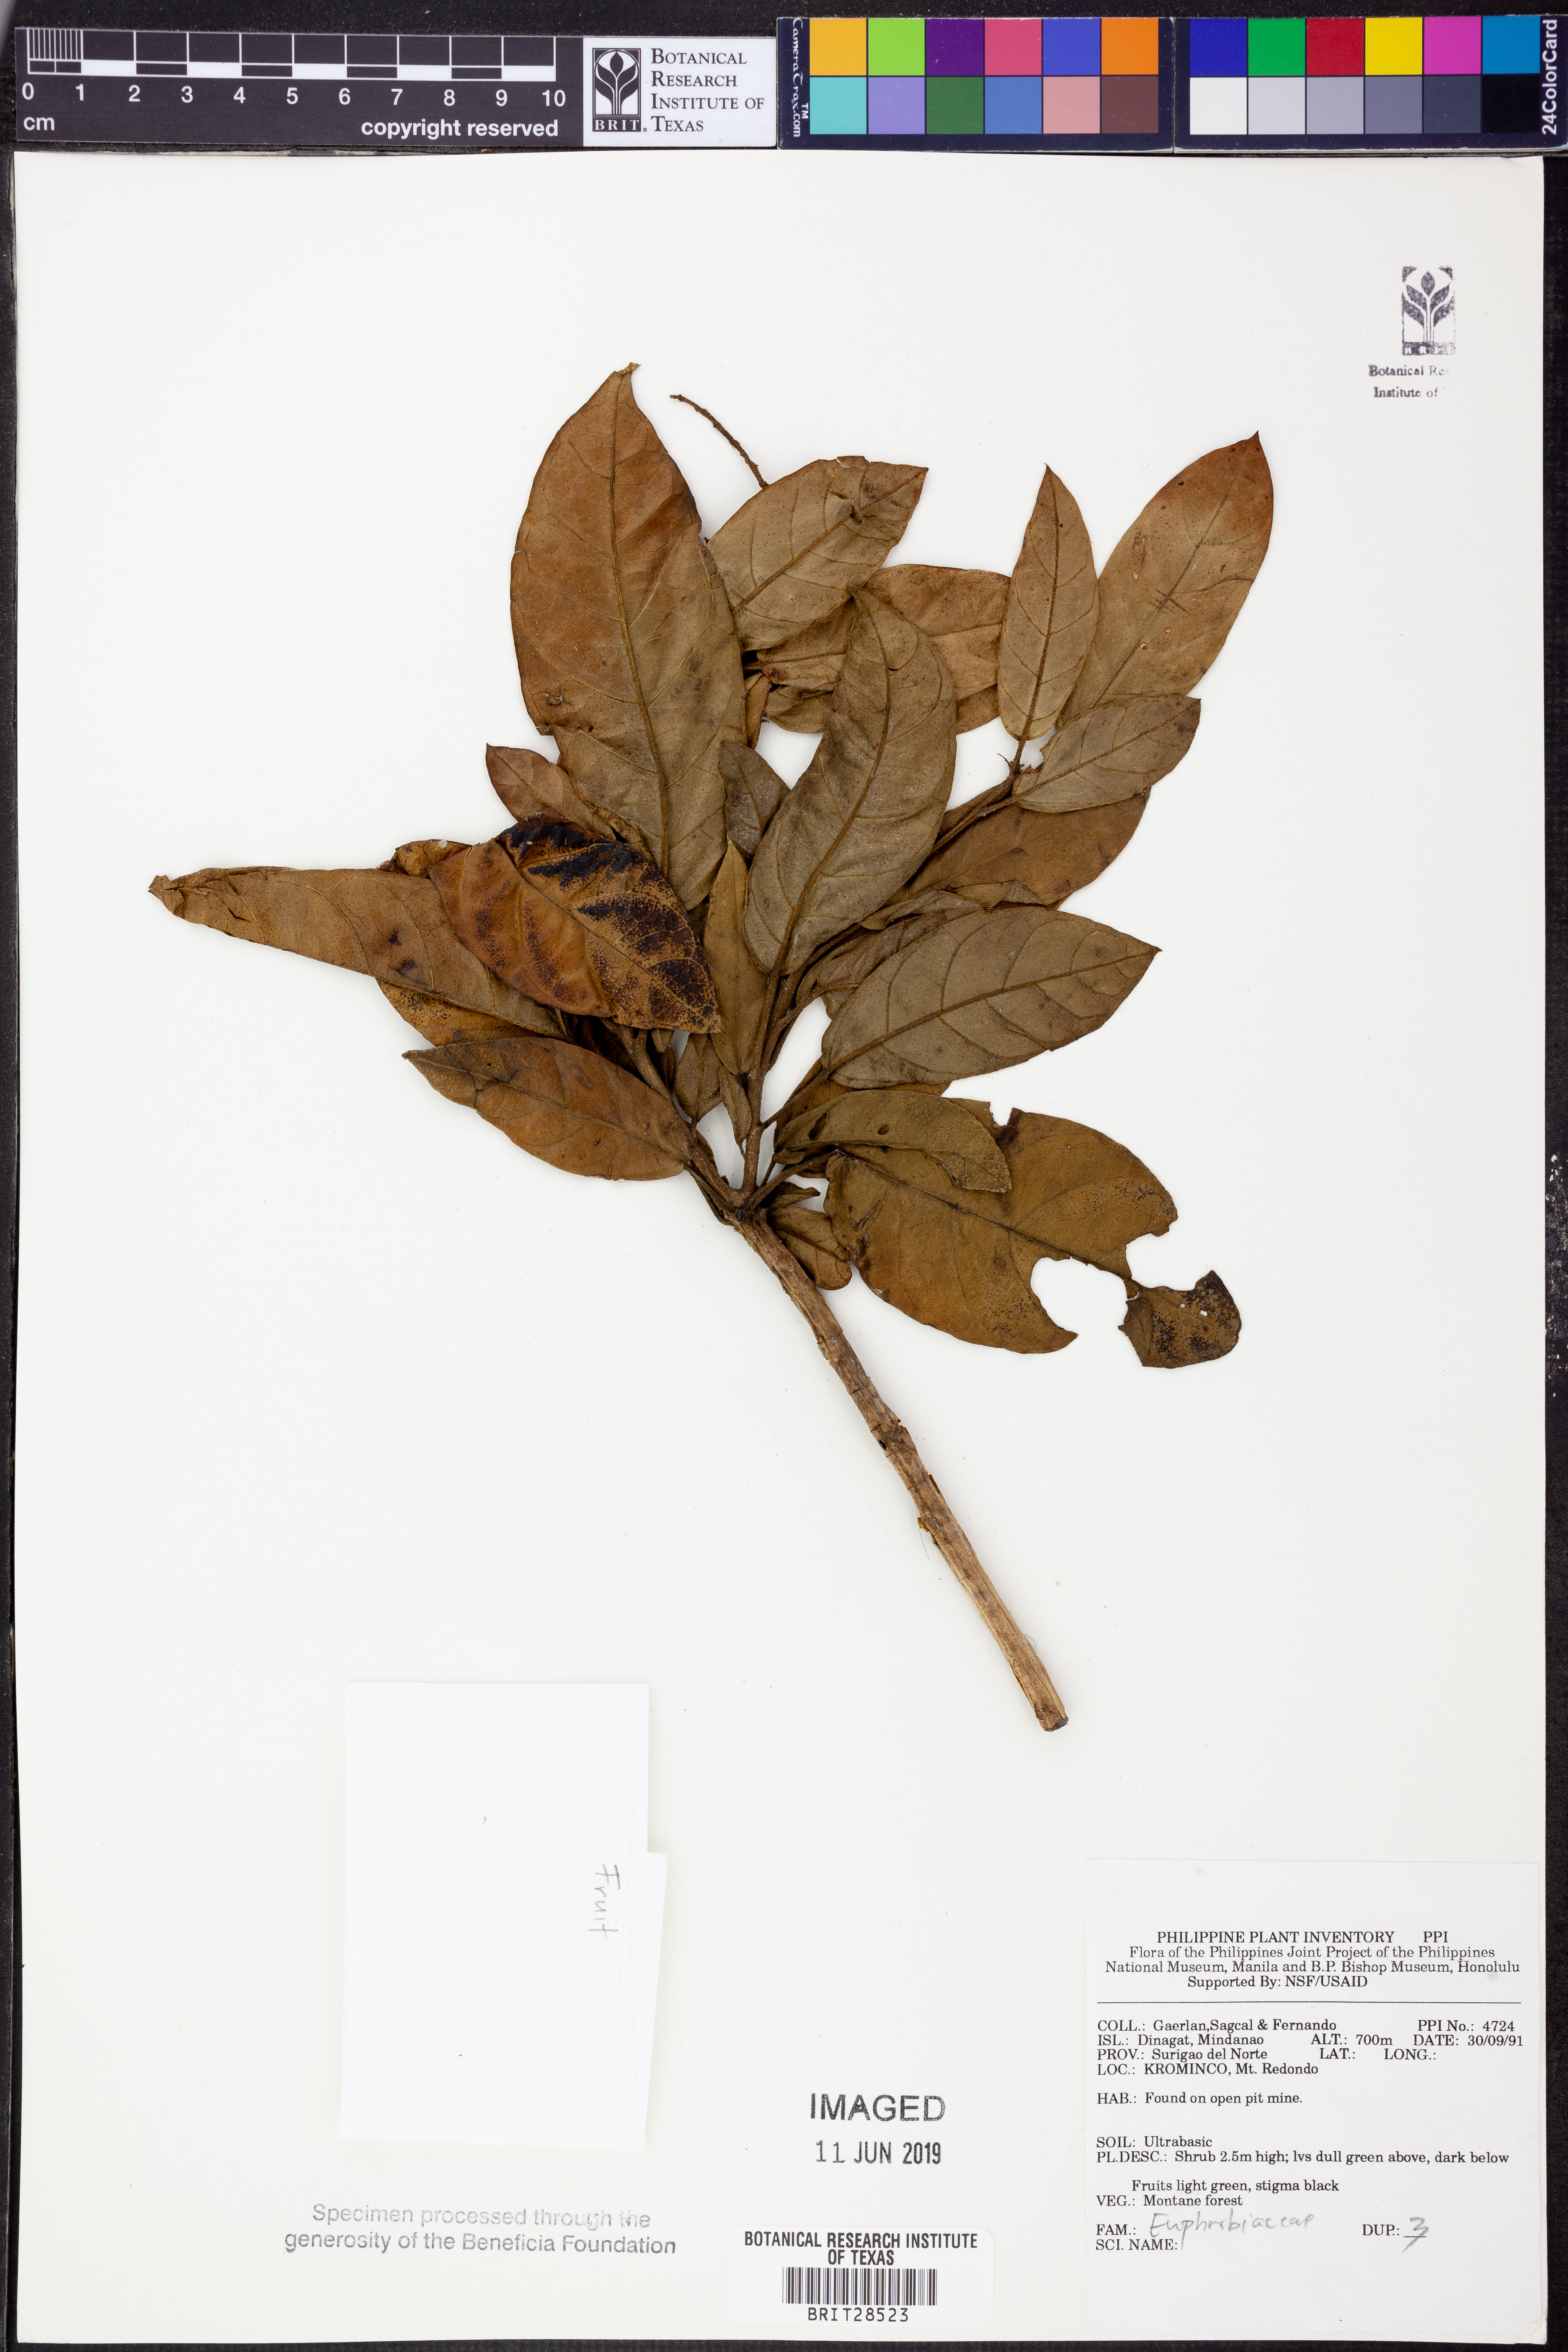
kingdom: Plantae
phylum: Tracheophyta
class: Magnoliopsida
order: Malpighiales
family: Euphorbiaceae
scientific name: Euphorbiaceae
